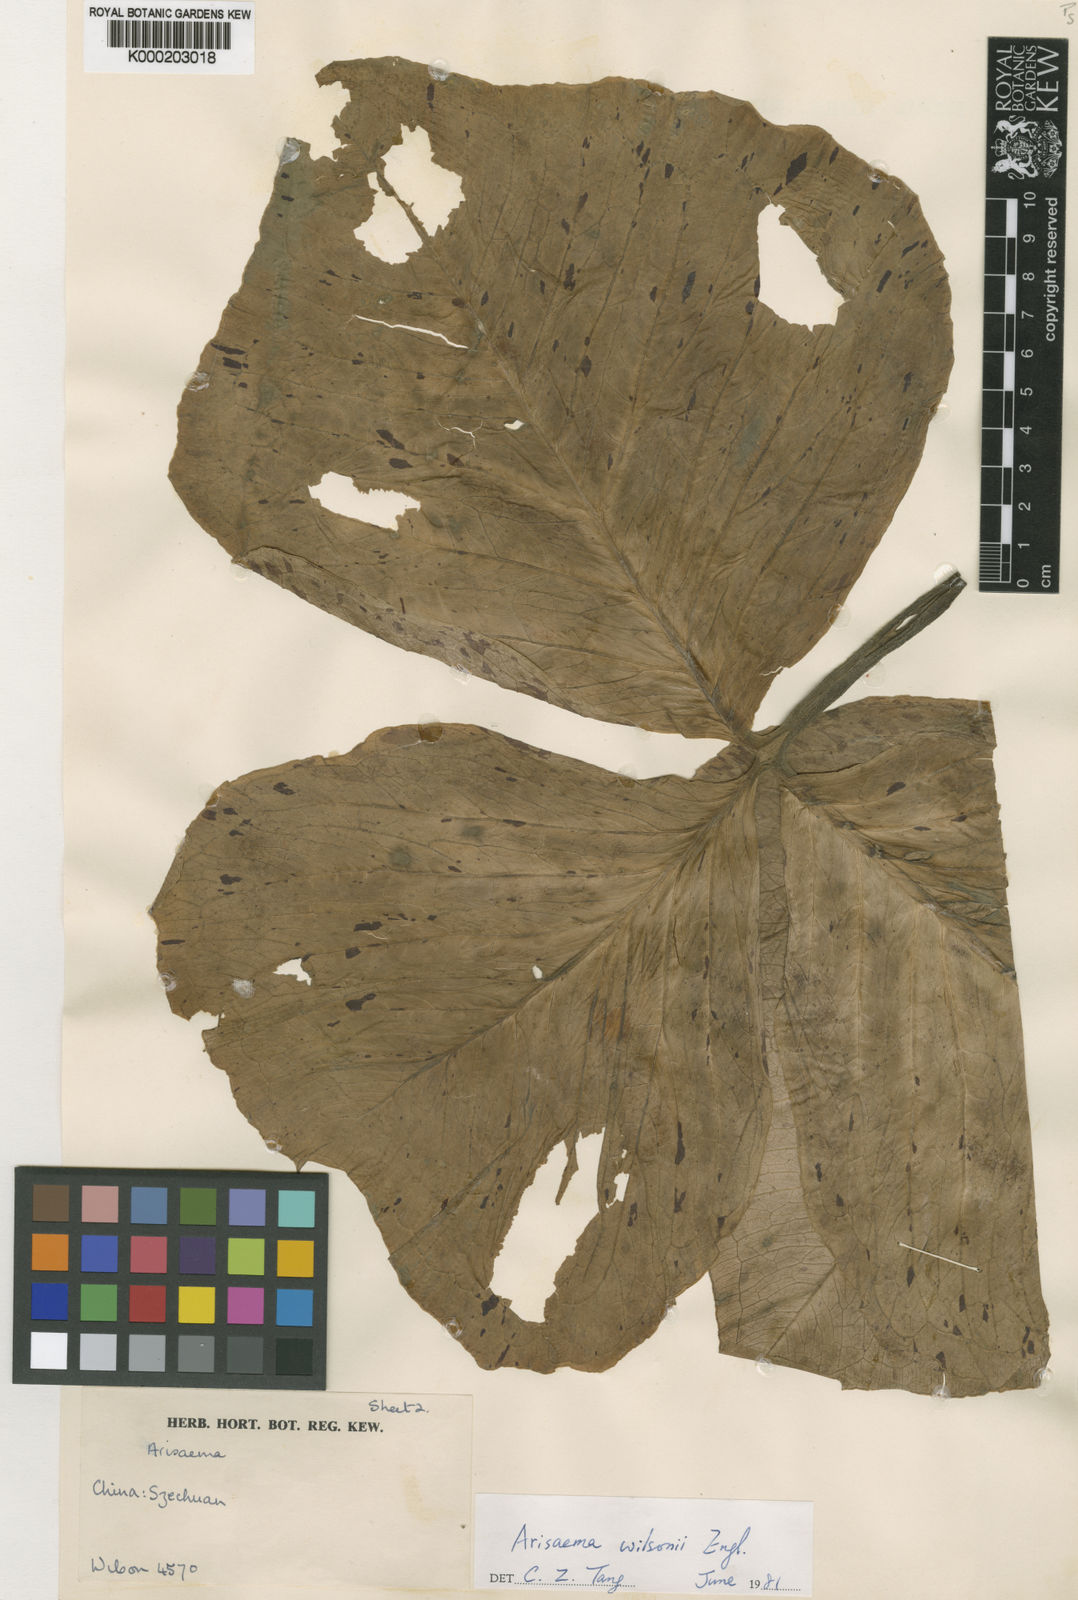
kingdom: Plantae
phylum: Tracheophyta
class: Liliopsida
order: Alismatales
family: Araceae
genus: Arisaema
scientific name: Arisaema wilsonii
